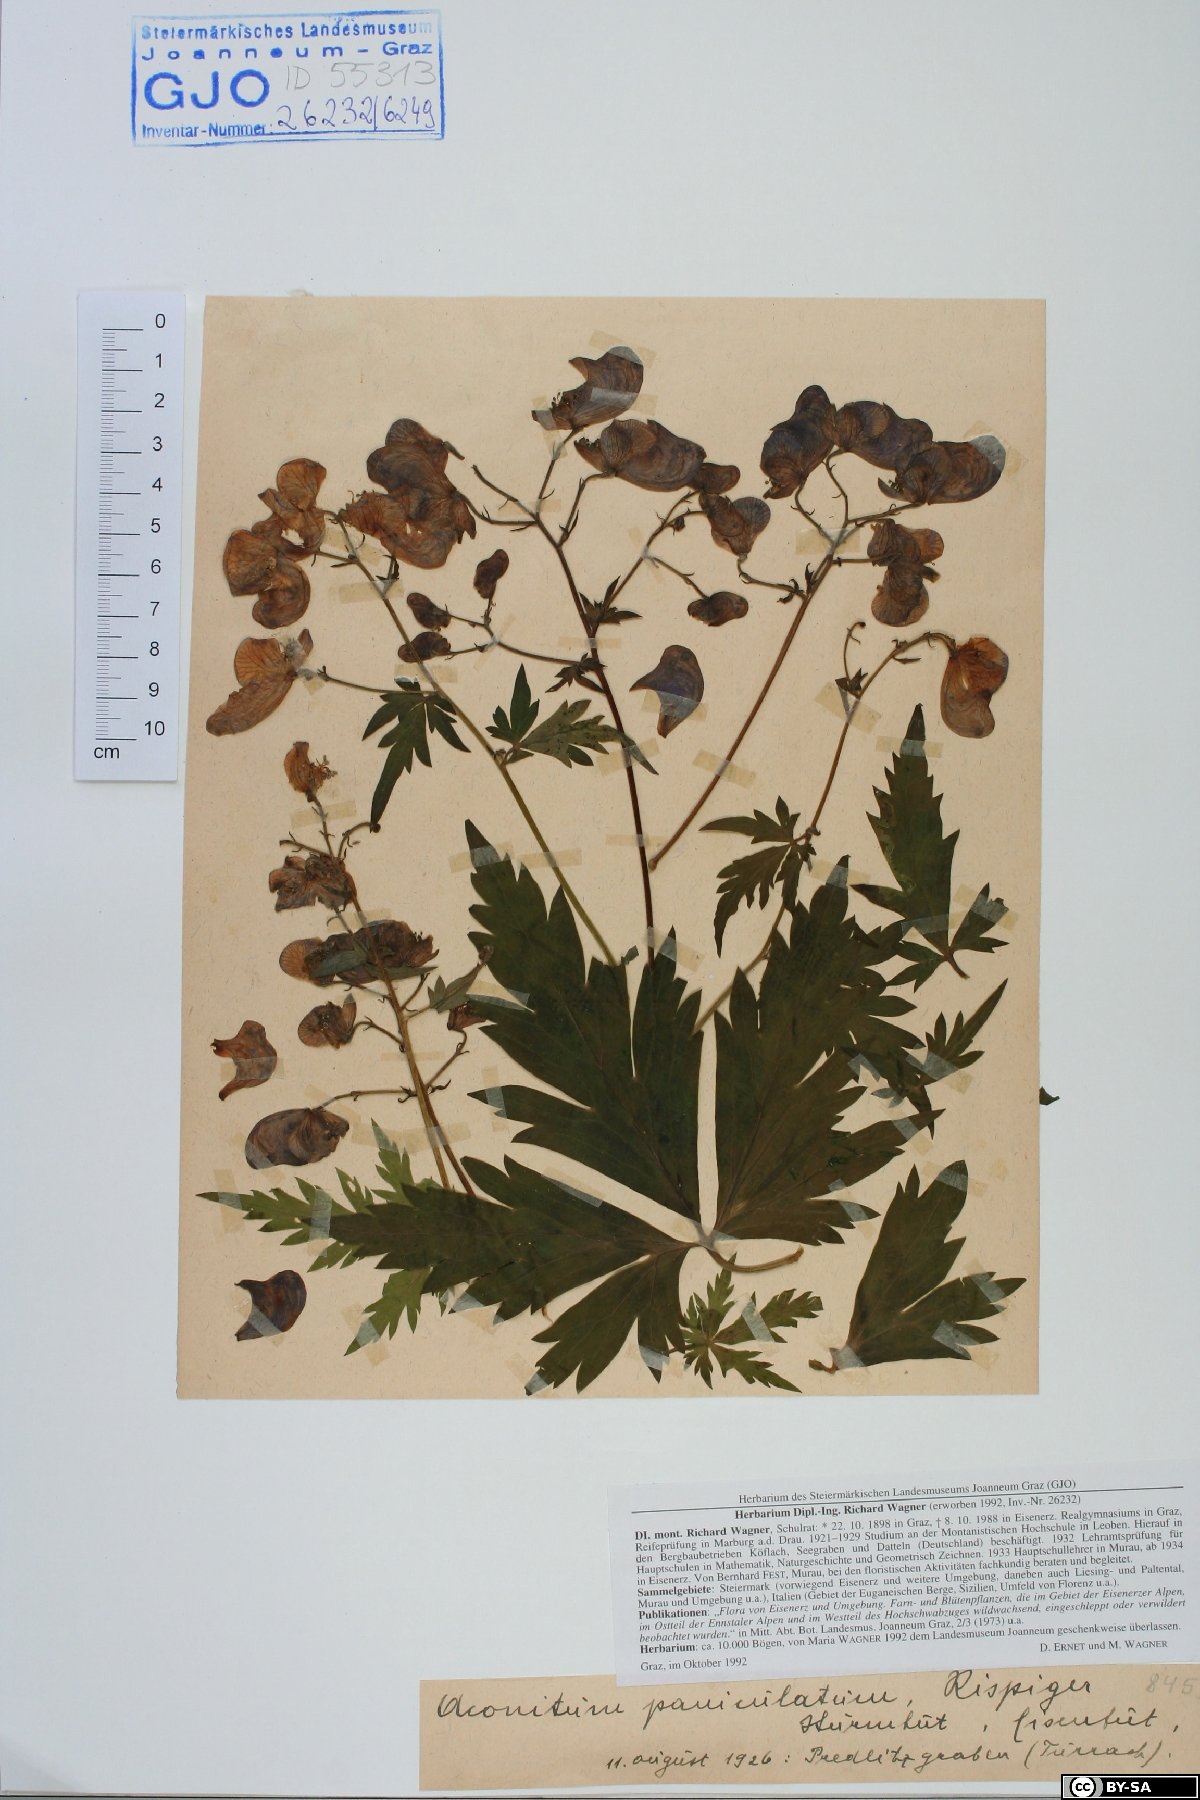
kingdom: Plantae
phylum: Tracheophyta
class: Magnoliopsida
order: Ranunculales
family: Ranunculaceae
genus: Aconitum
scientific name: Aconitum degenii
